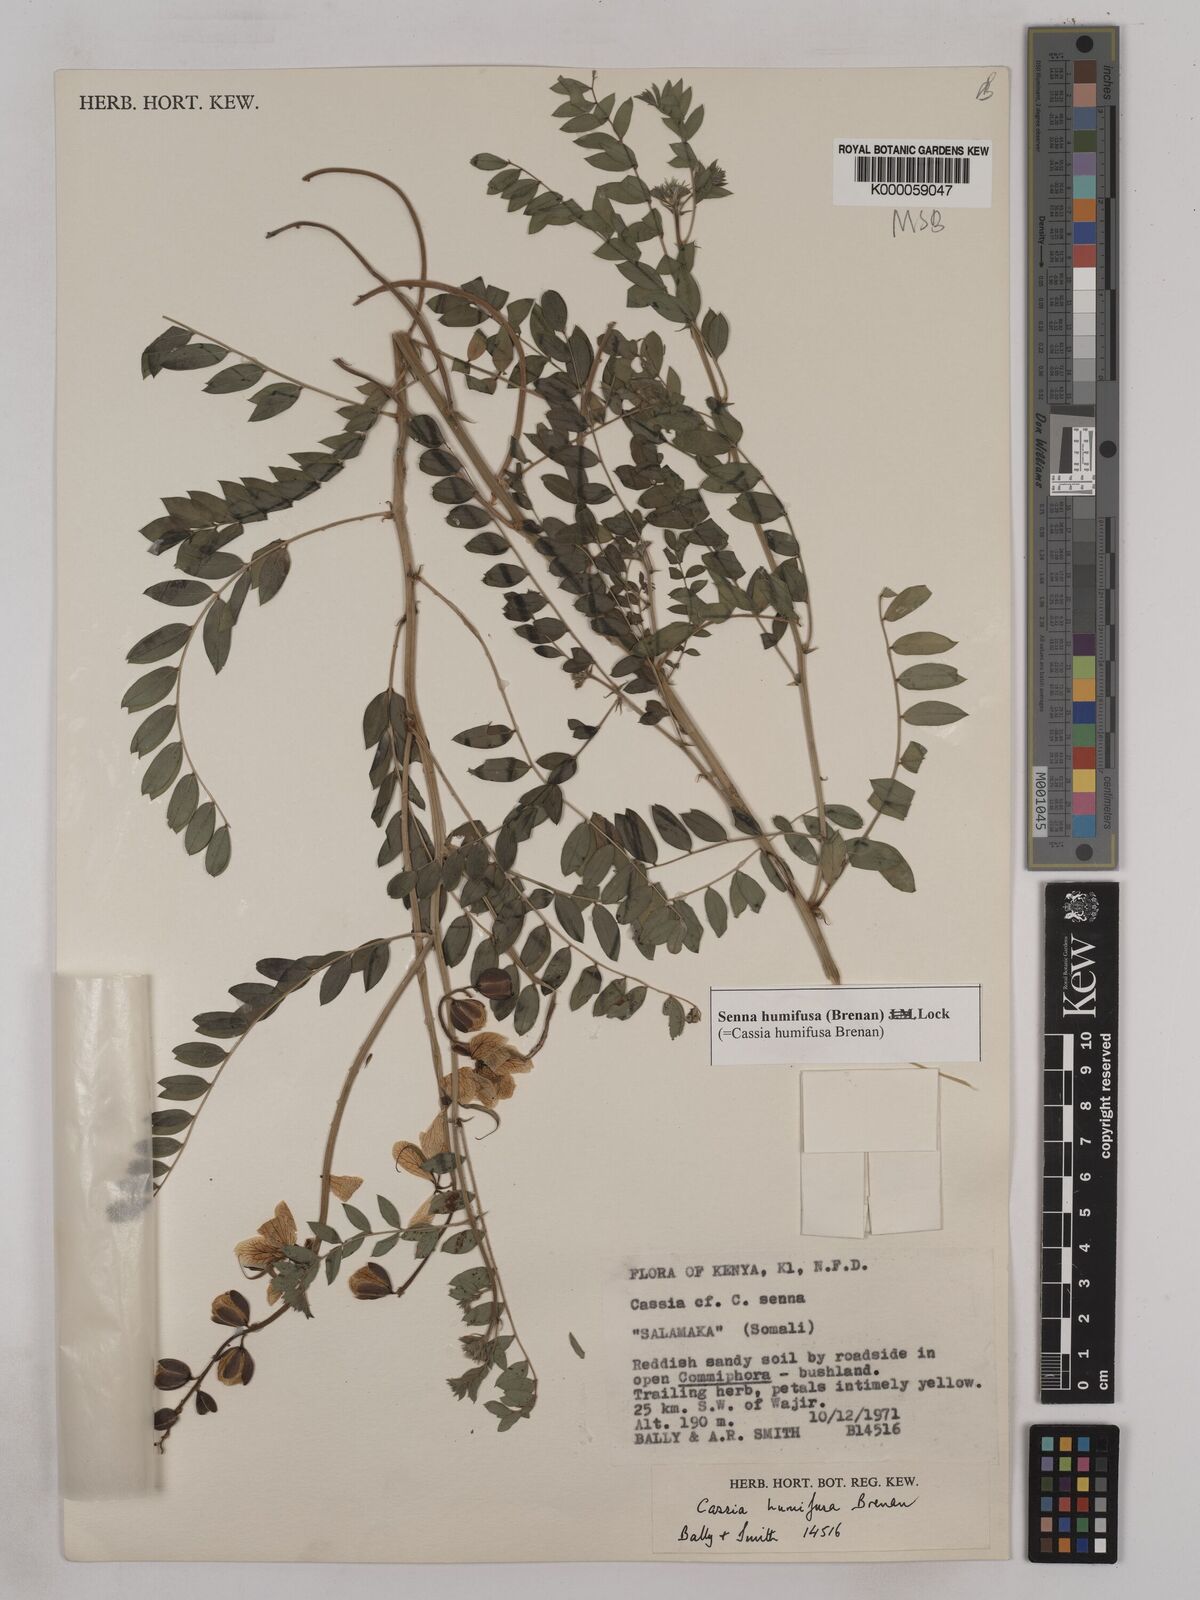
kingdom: Plantae
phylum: Tracheophyta
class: Magnoliopsida
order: Fabales
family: Fabaceae
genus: Senna
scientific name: Senna humifusa
